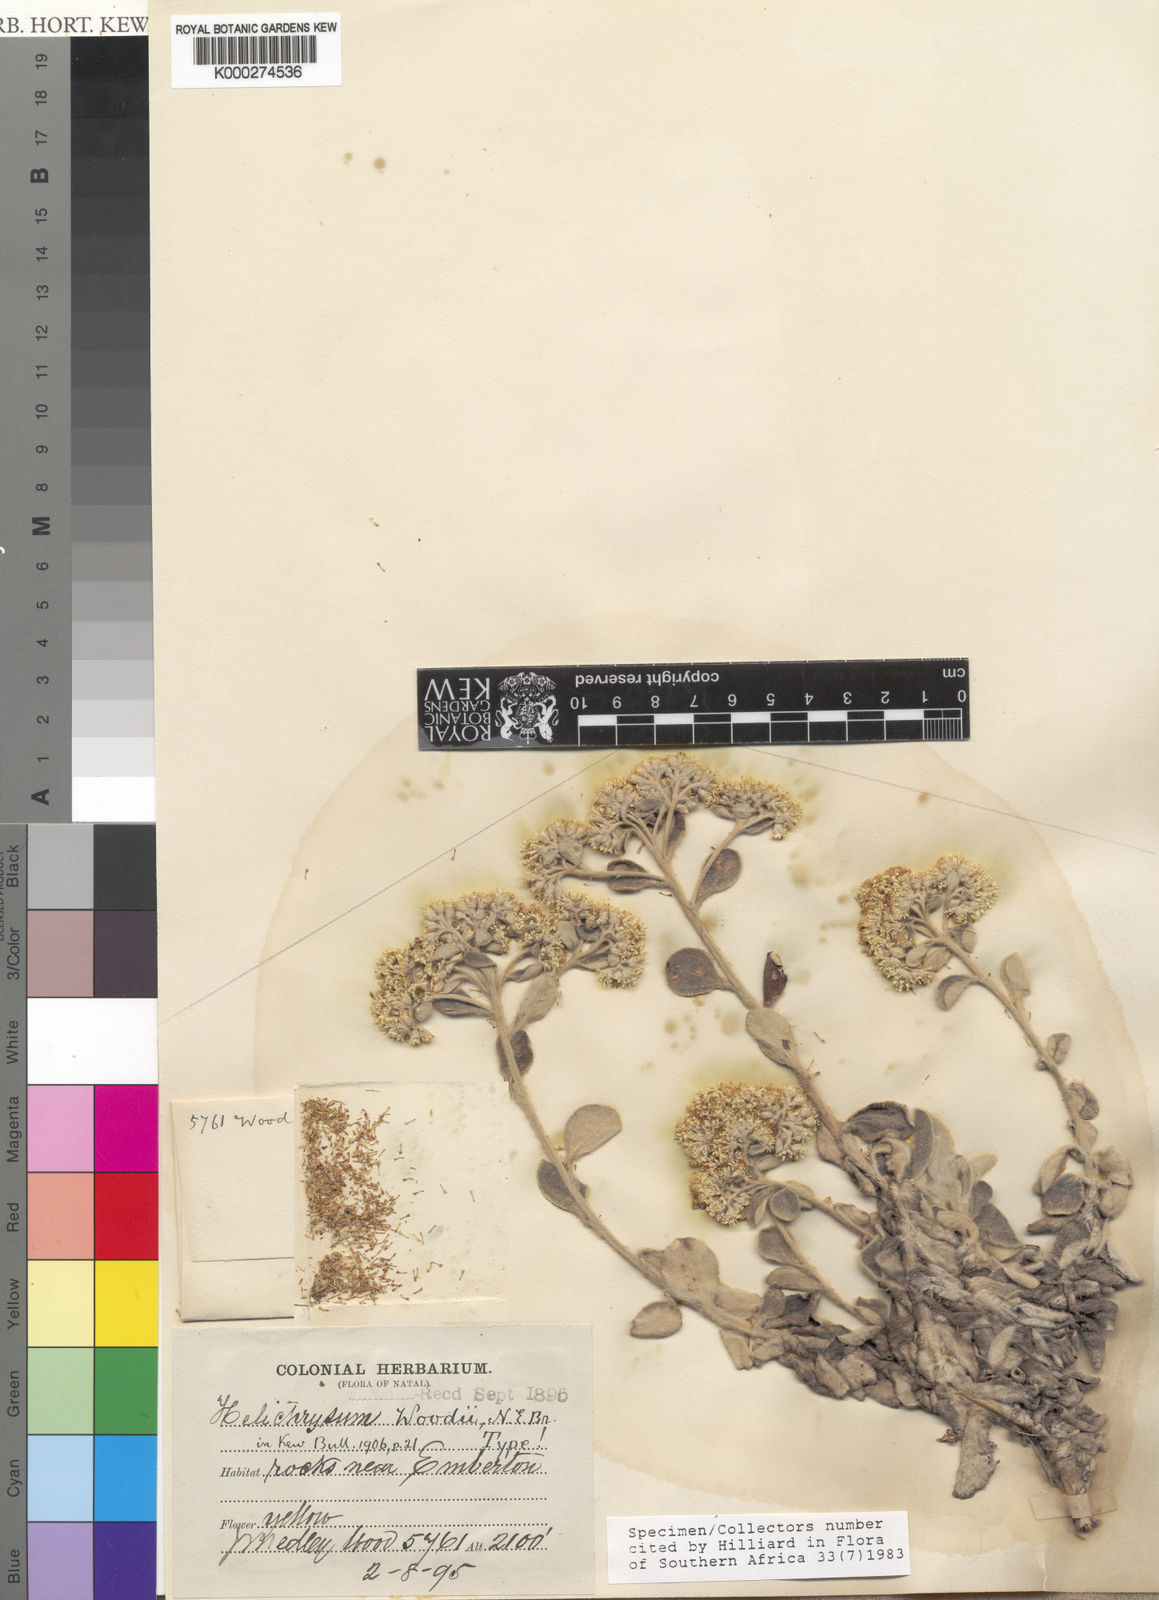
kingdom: Plantae
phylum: Tracheophyta
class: Magnoliopsida
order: Asterales
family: Asteraceae
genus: Helichrysum
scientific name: Helichrysum woodii
